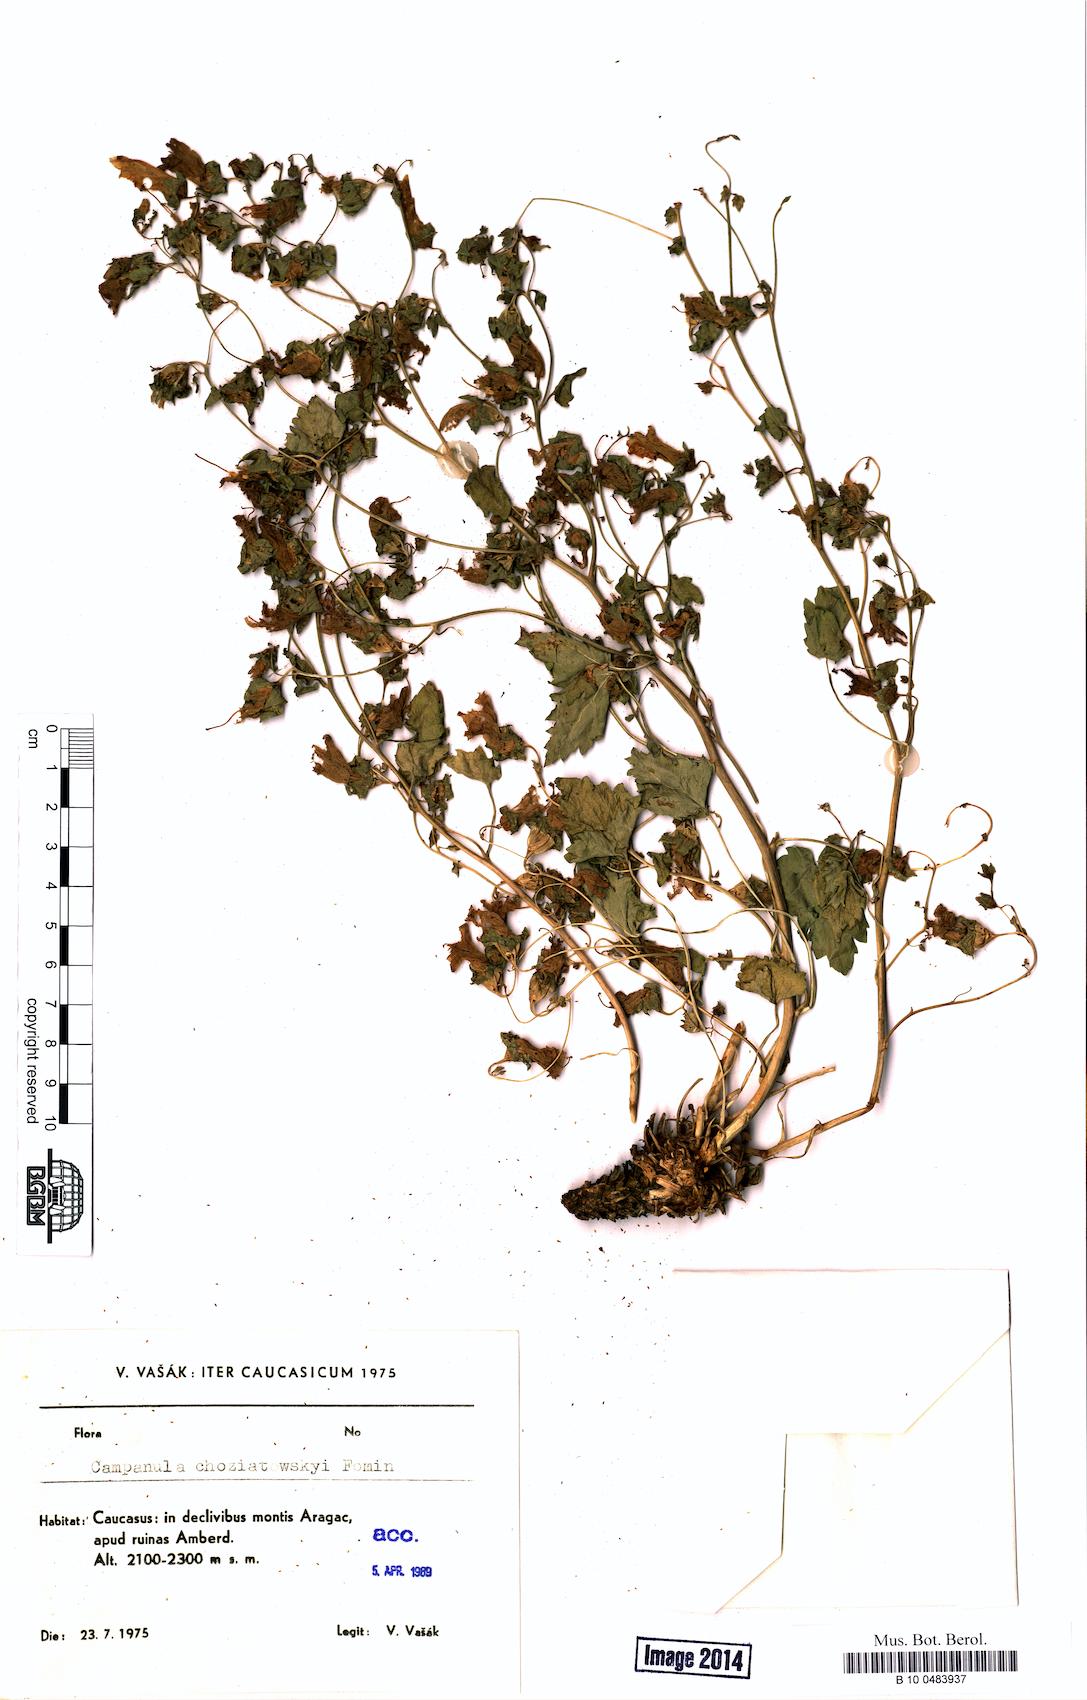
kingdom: Plantae
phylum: Tracheophyta
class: Magnoliopsida
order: Asterales
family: Campanulaceae
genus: Campanula
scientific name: Campanula armena
